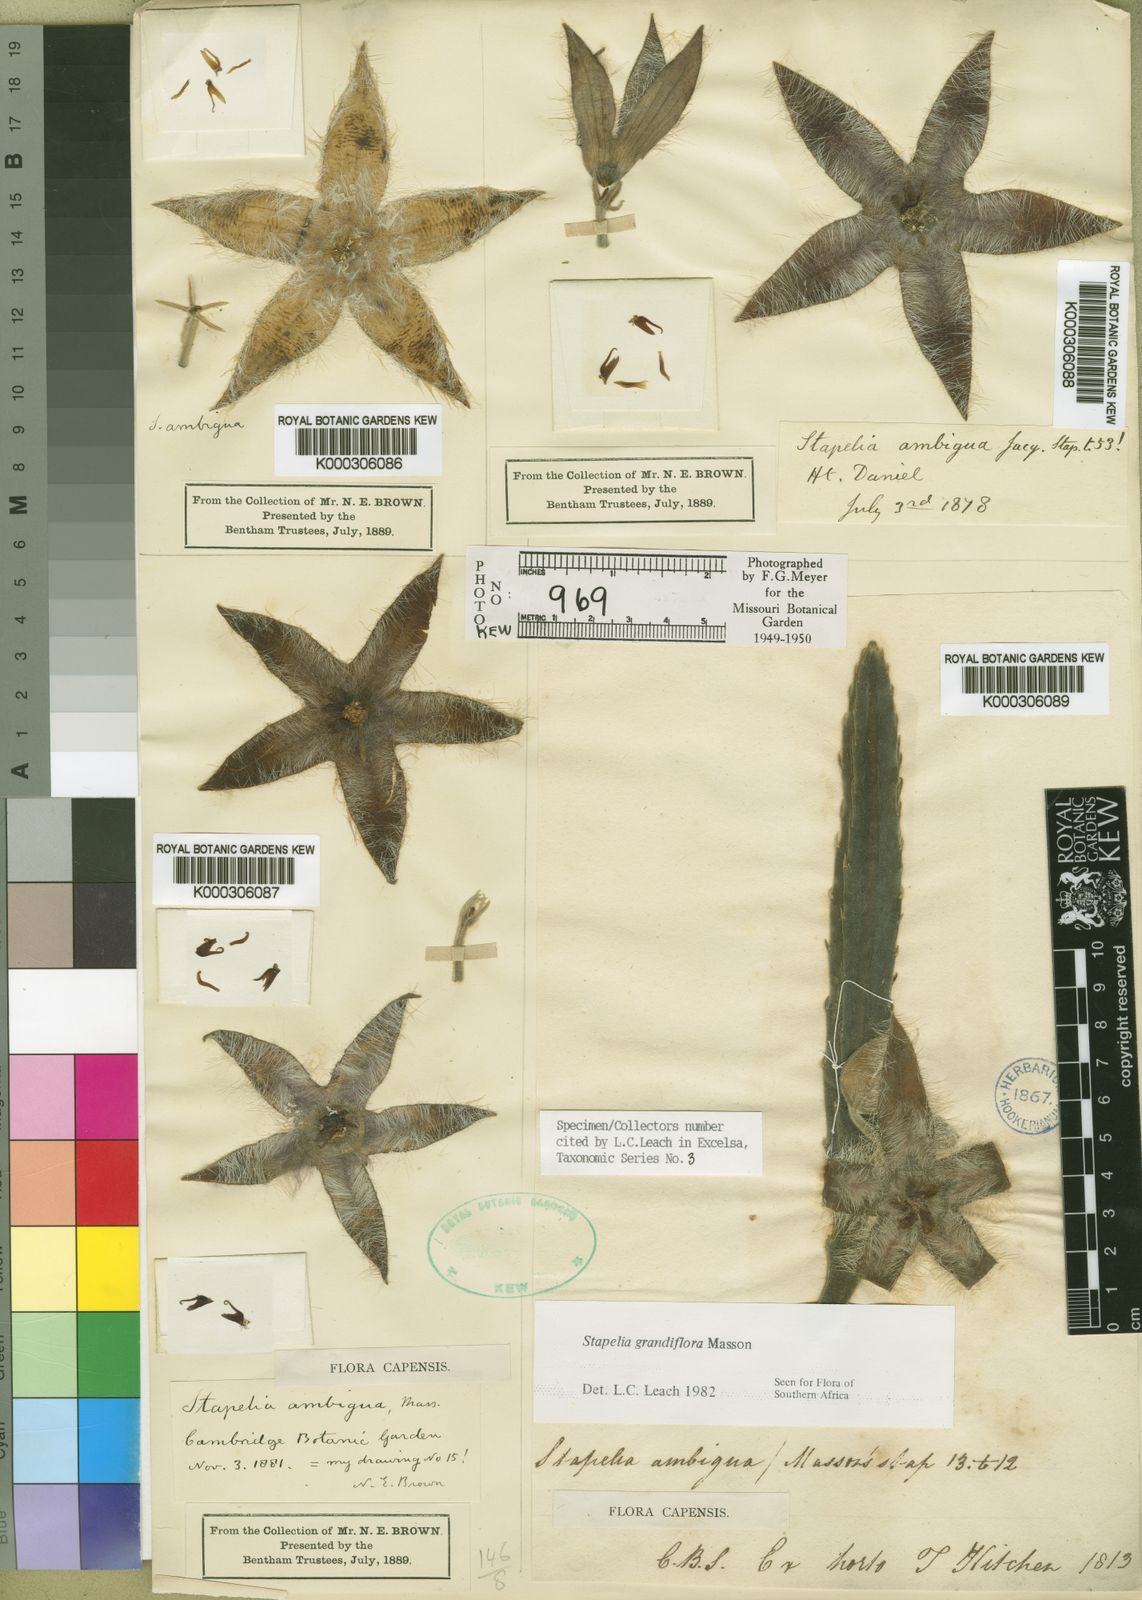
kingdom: Plantae
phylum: Tracheophyta
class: Magnoliopsida
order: Gentianales
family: Apocynaceae
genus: Ceropegia
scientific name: Ceropegia grandiflora
